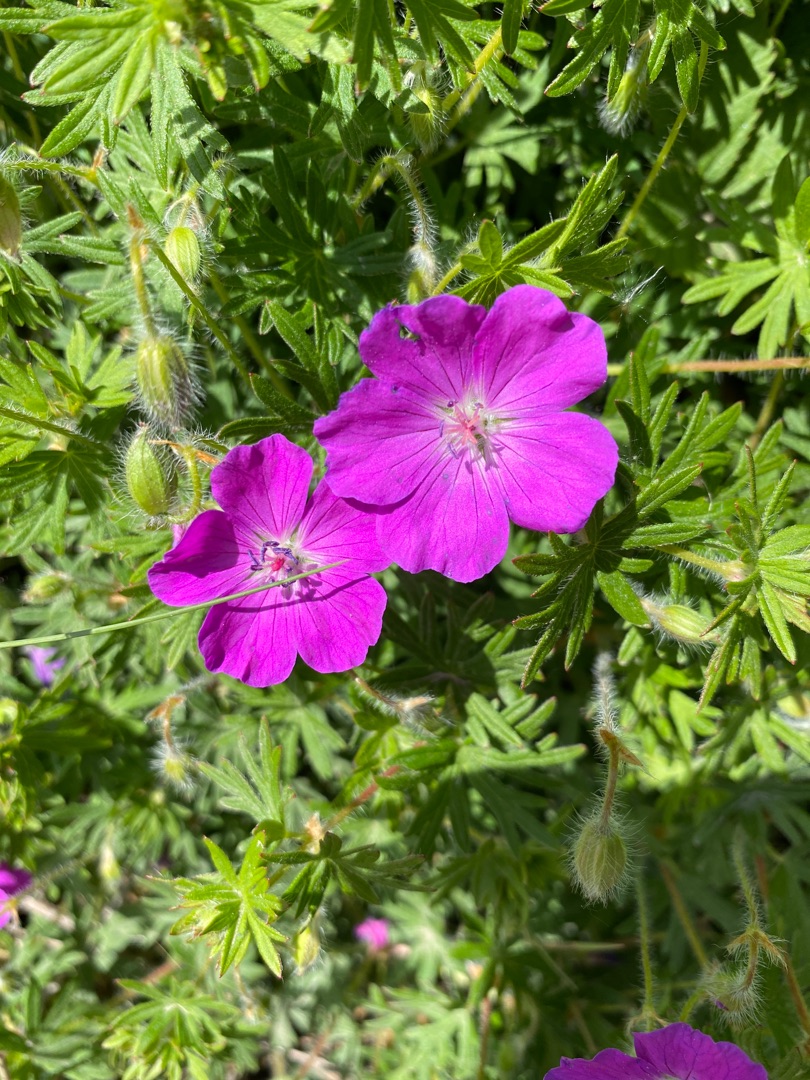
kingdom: Plantae
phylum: Tracheophyta
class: Magnoliopsida
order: Geraniales
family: Geraniaceae
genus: Geranium
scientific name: Geranium sanguineum
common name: Blodrød storkenæb
